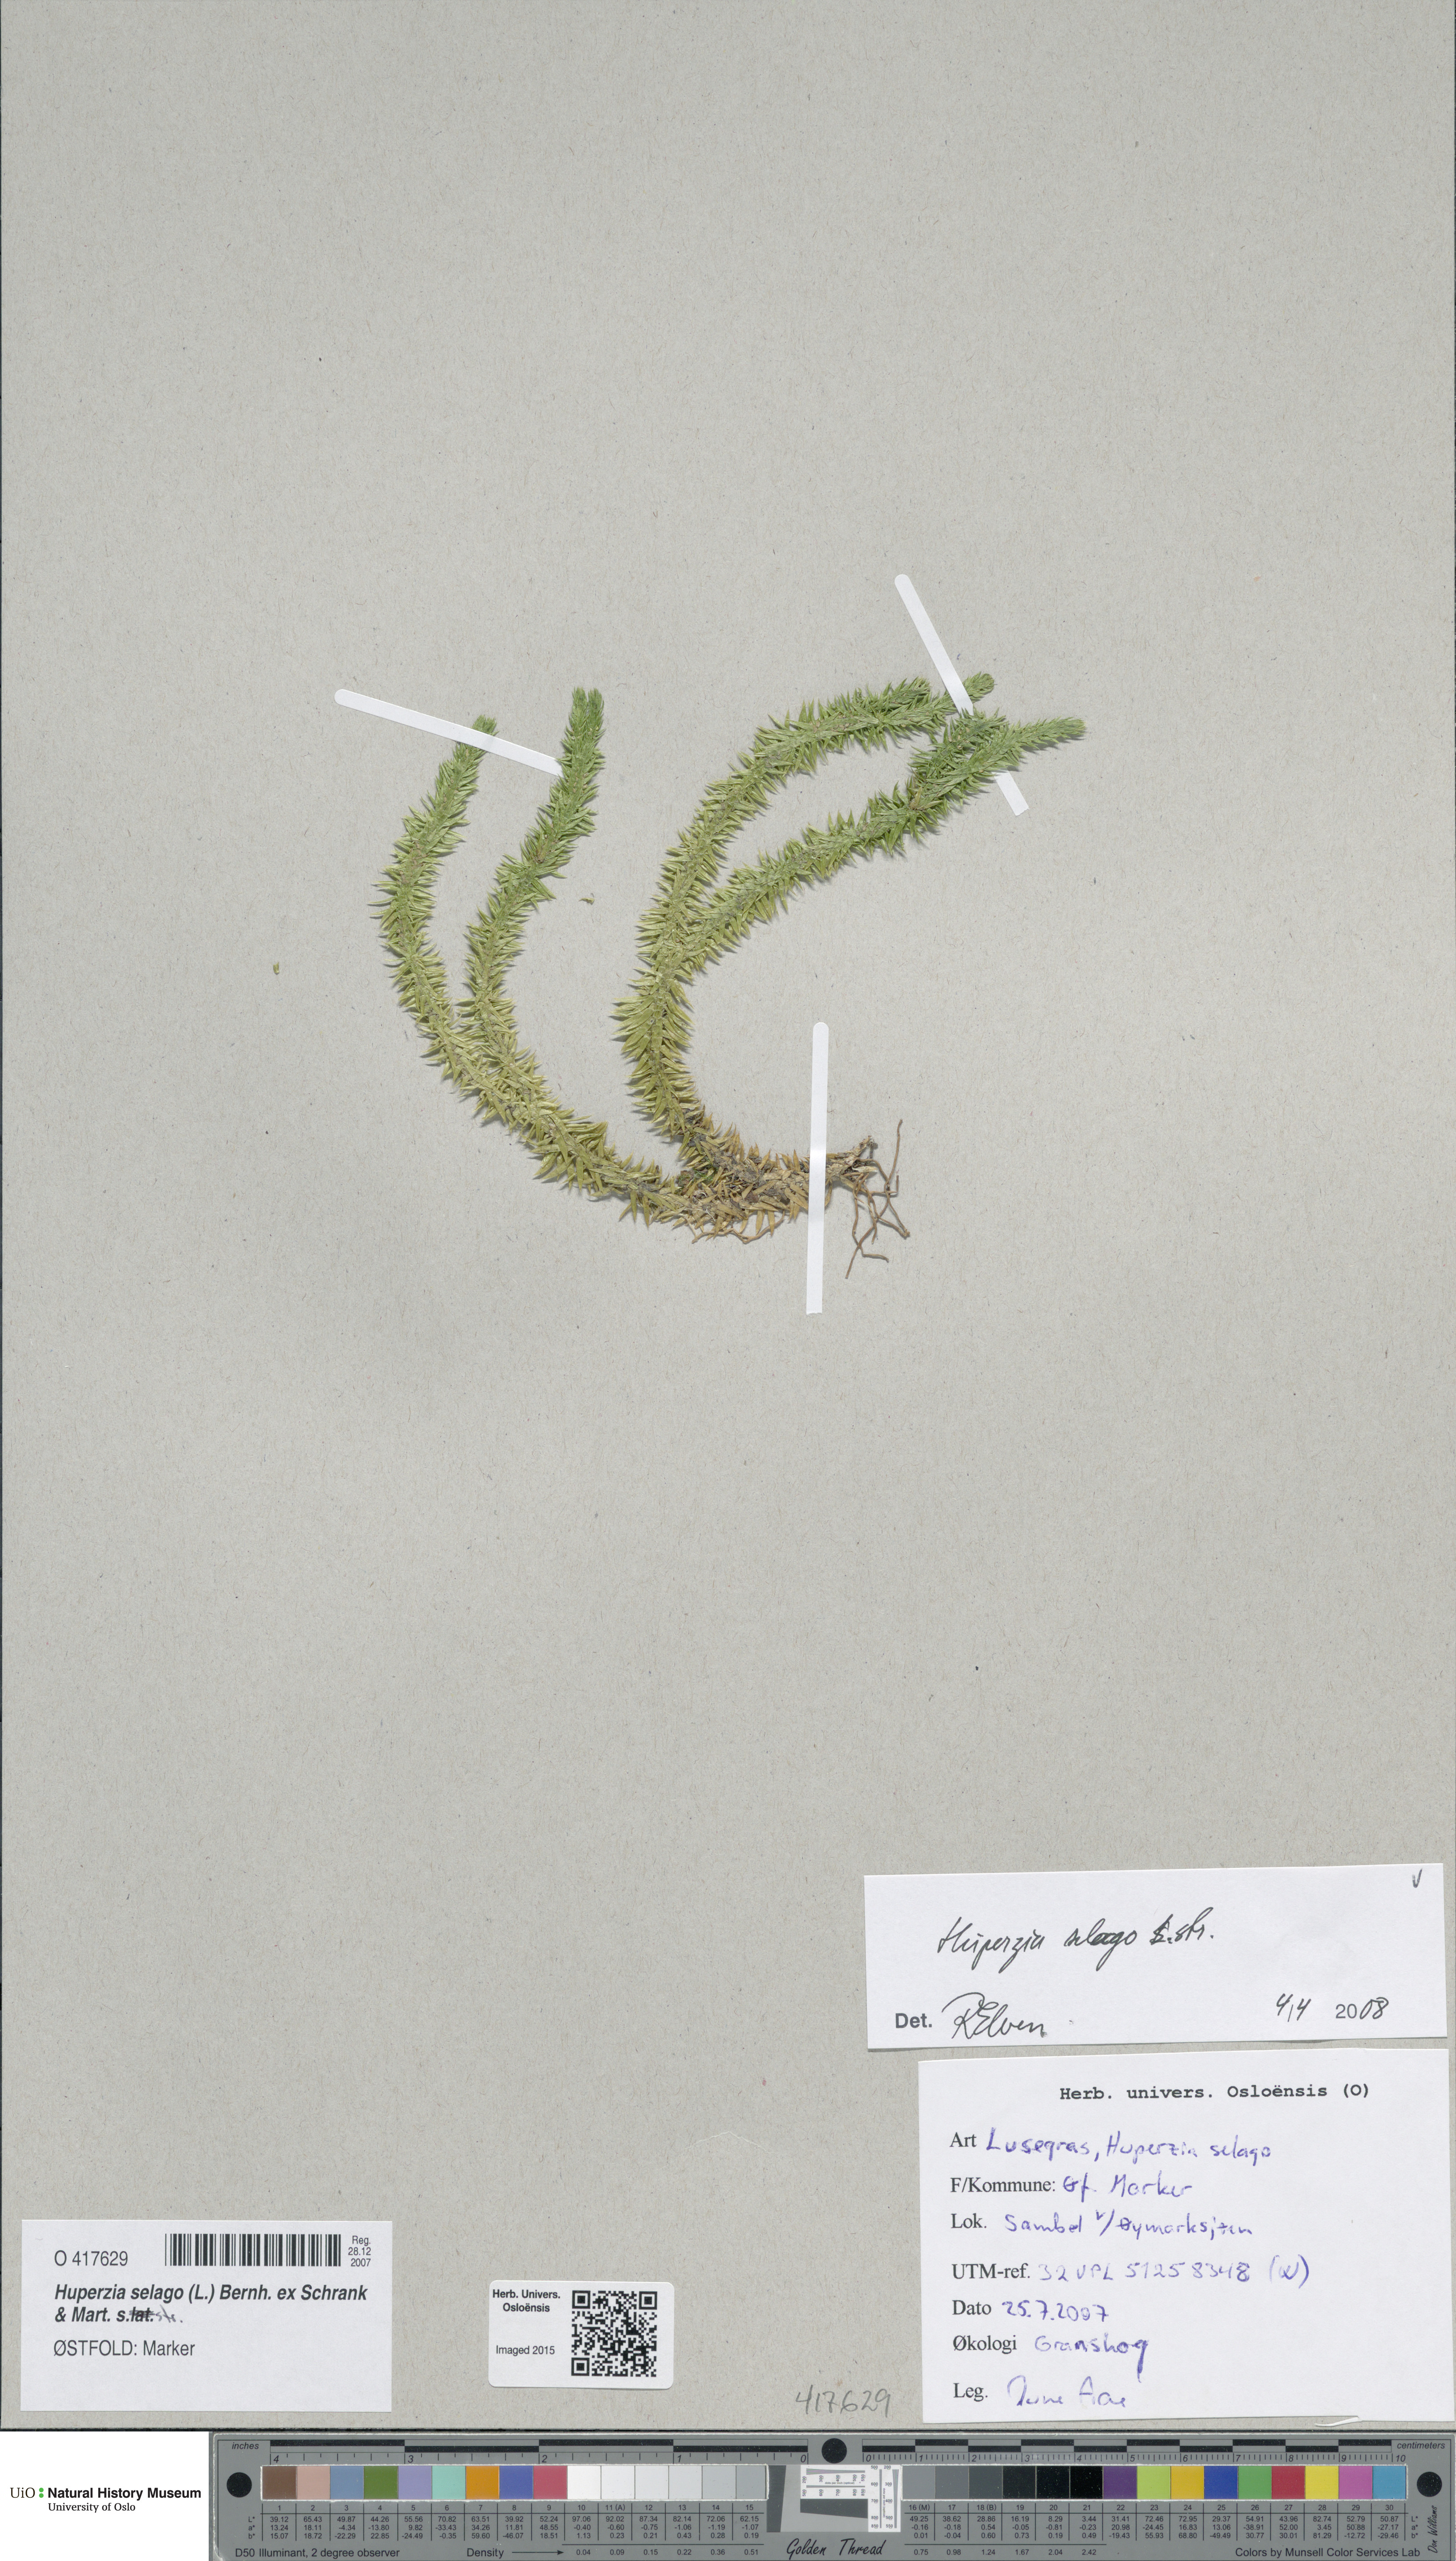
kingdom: Plantae
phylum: Tracheophyta
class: Lycopodiopsida
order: Lycopodiales
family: Lycopodiaceae
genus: Huperzia
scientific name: Huperzia selago
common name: Northern firmoss
